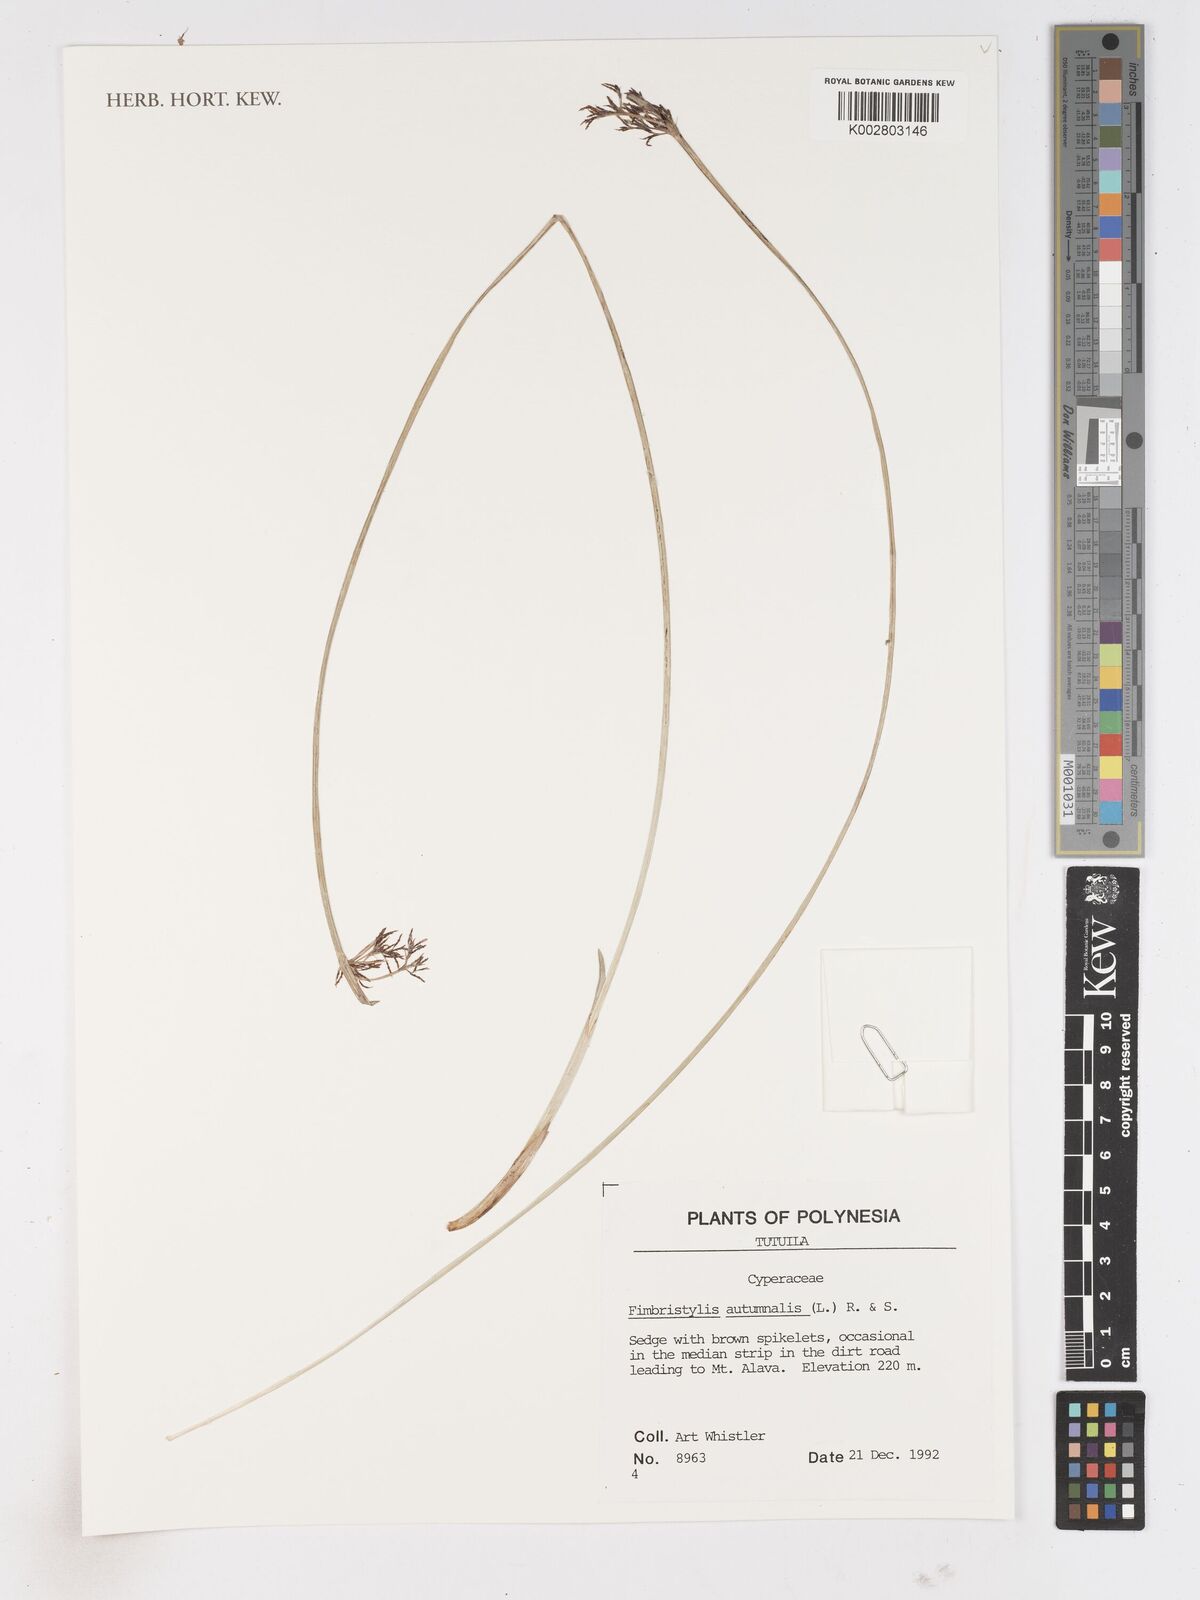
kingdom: Plantae
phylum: Tracheophyta
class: Liliopsida
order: Poales
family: Cyperaceae
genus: Fimbristylis
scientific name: Fimbristylis autumnalis
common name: Slender fimbristylis
